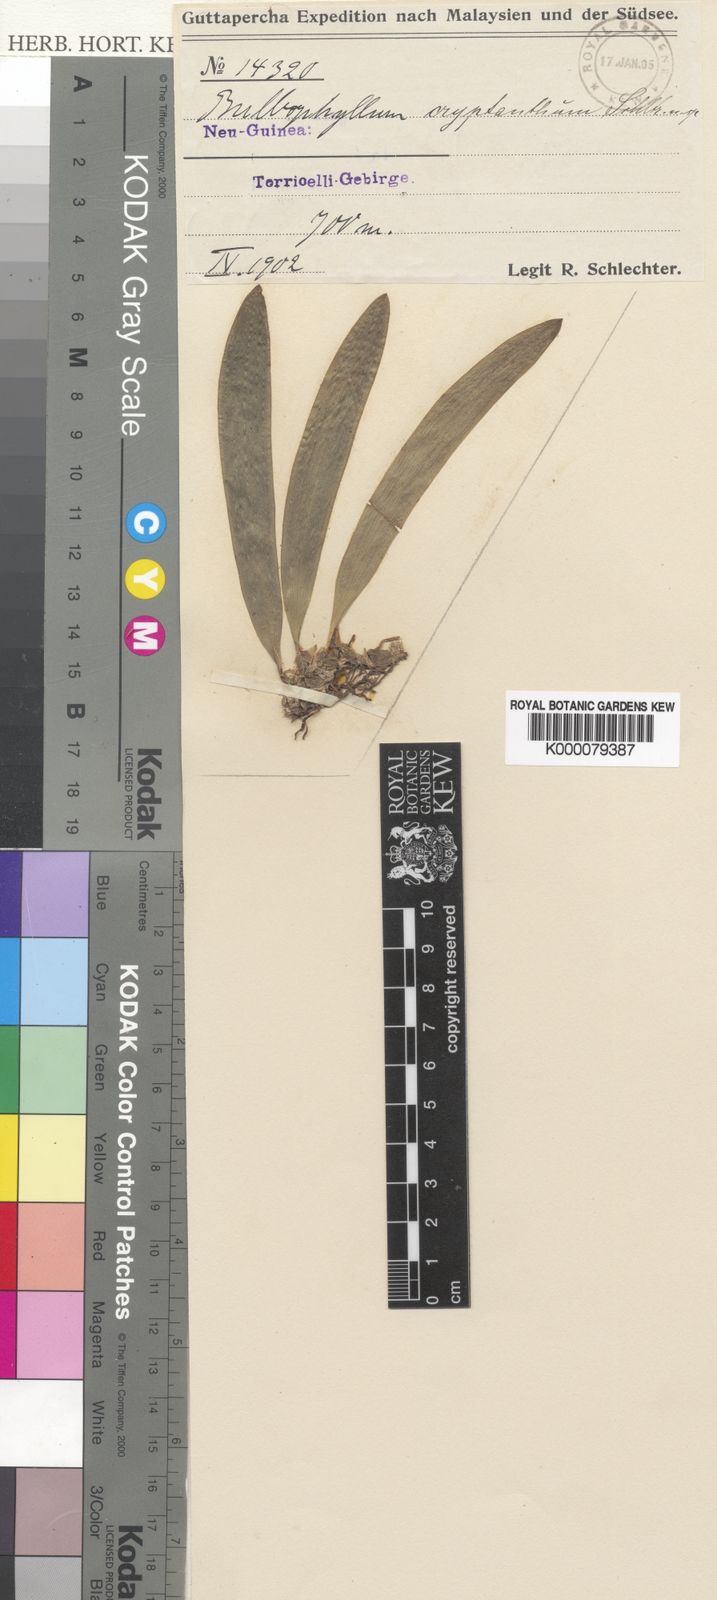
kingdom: Plantae
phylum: Tracheophyta
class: Liliopsida
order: Asparagales
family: Orchidaceae
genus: Bulbophyllum
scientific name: Bulbophyllum dichilus
